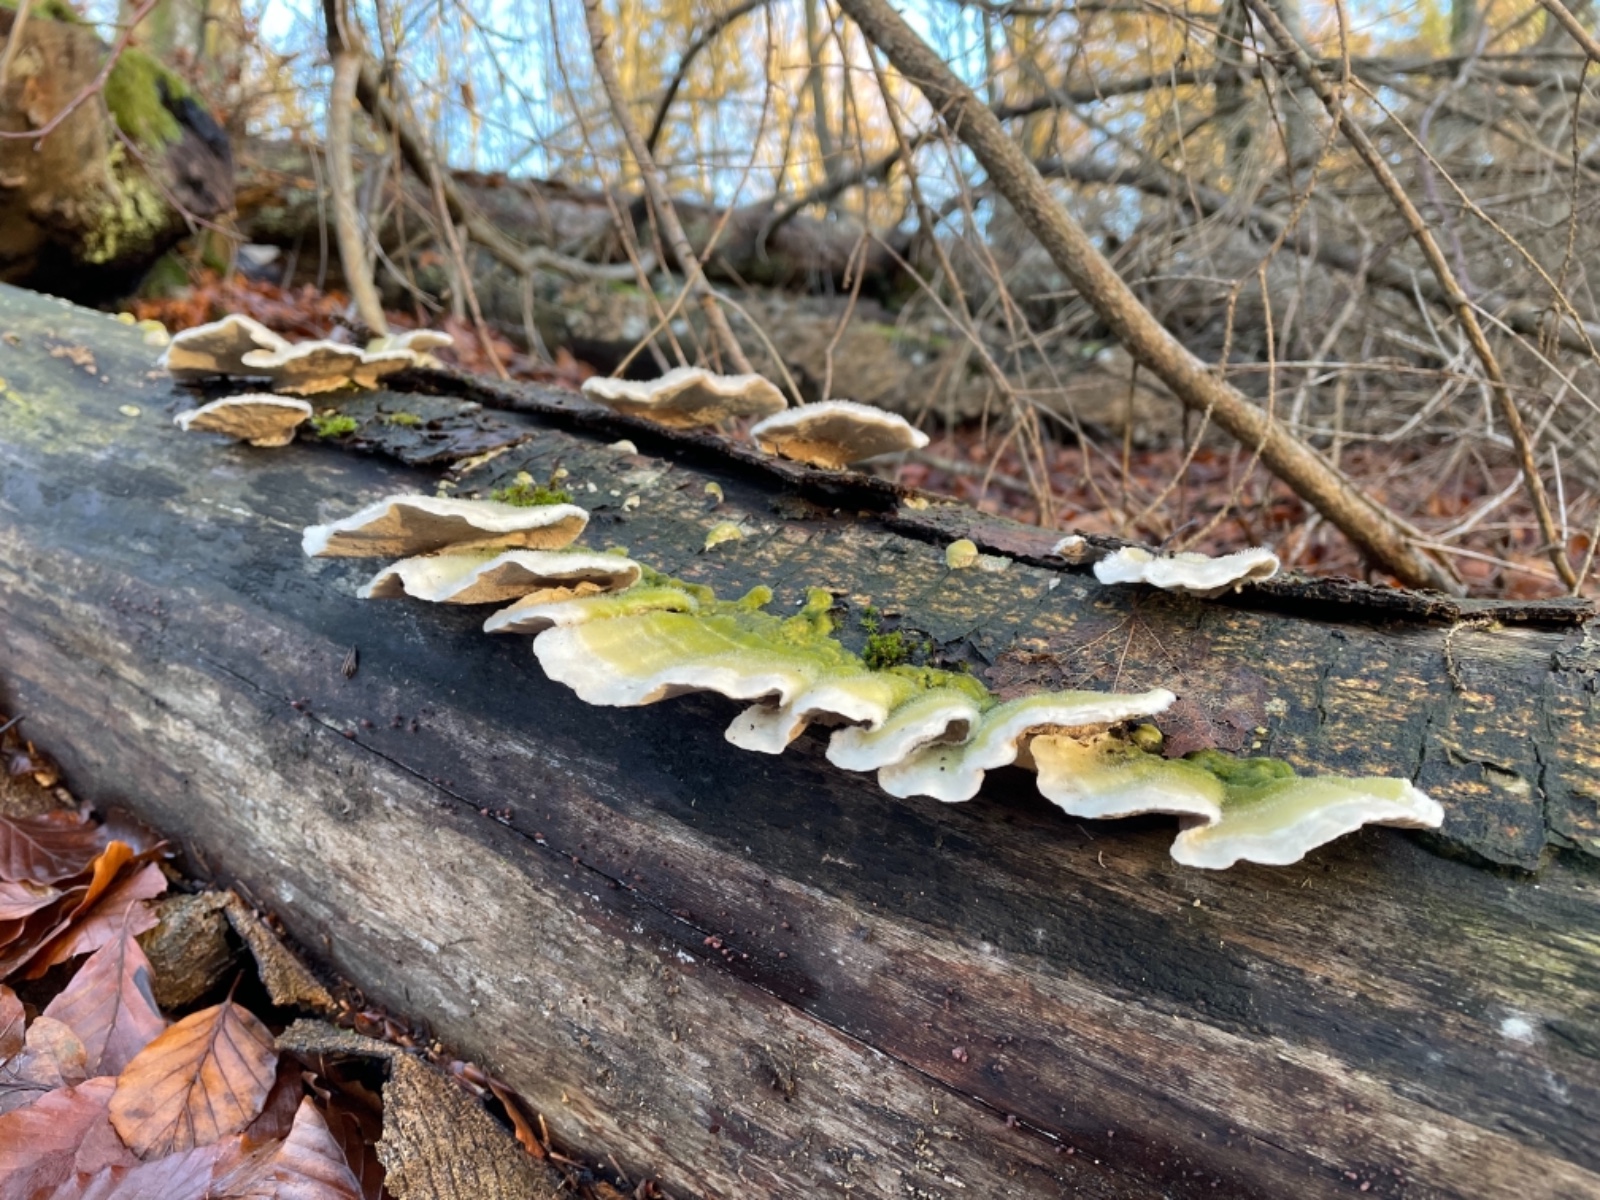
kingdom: Fungi
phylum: Basidiomycota
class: Agaricomycetes
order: Polyporales
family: Polyporaceae
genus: Trametes
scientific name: Trametes hirsuta
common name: håret læderporesvamp
